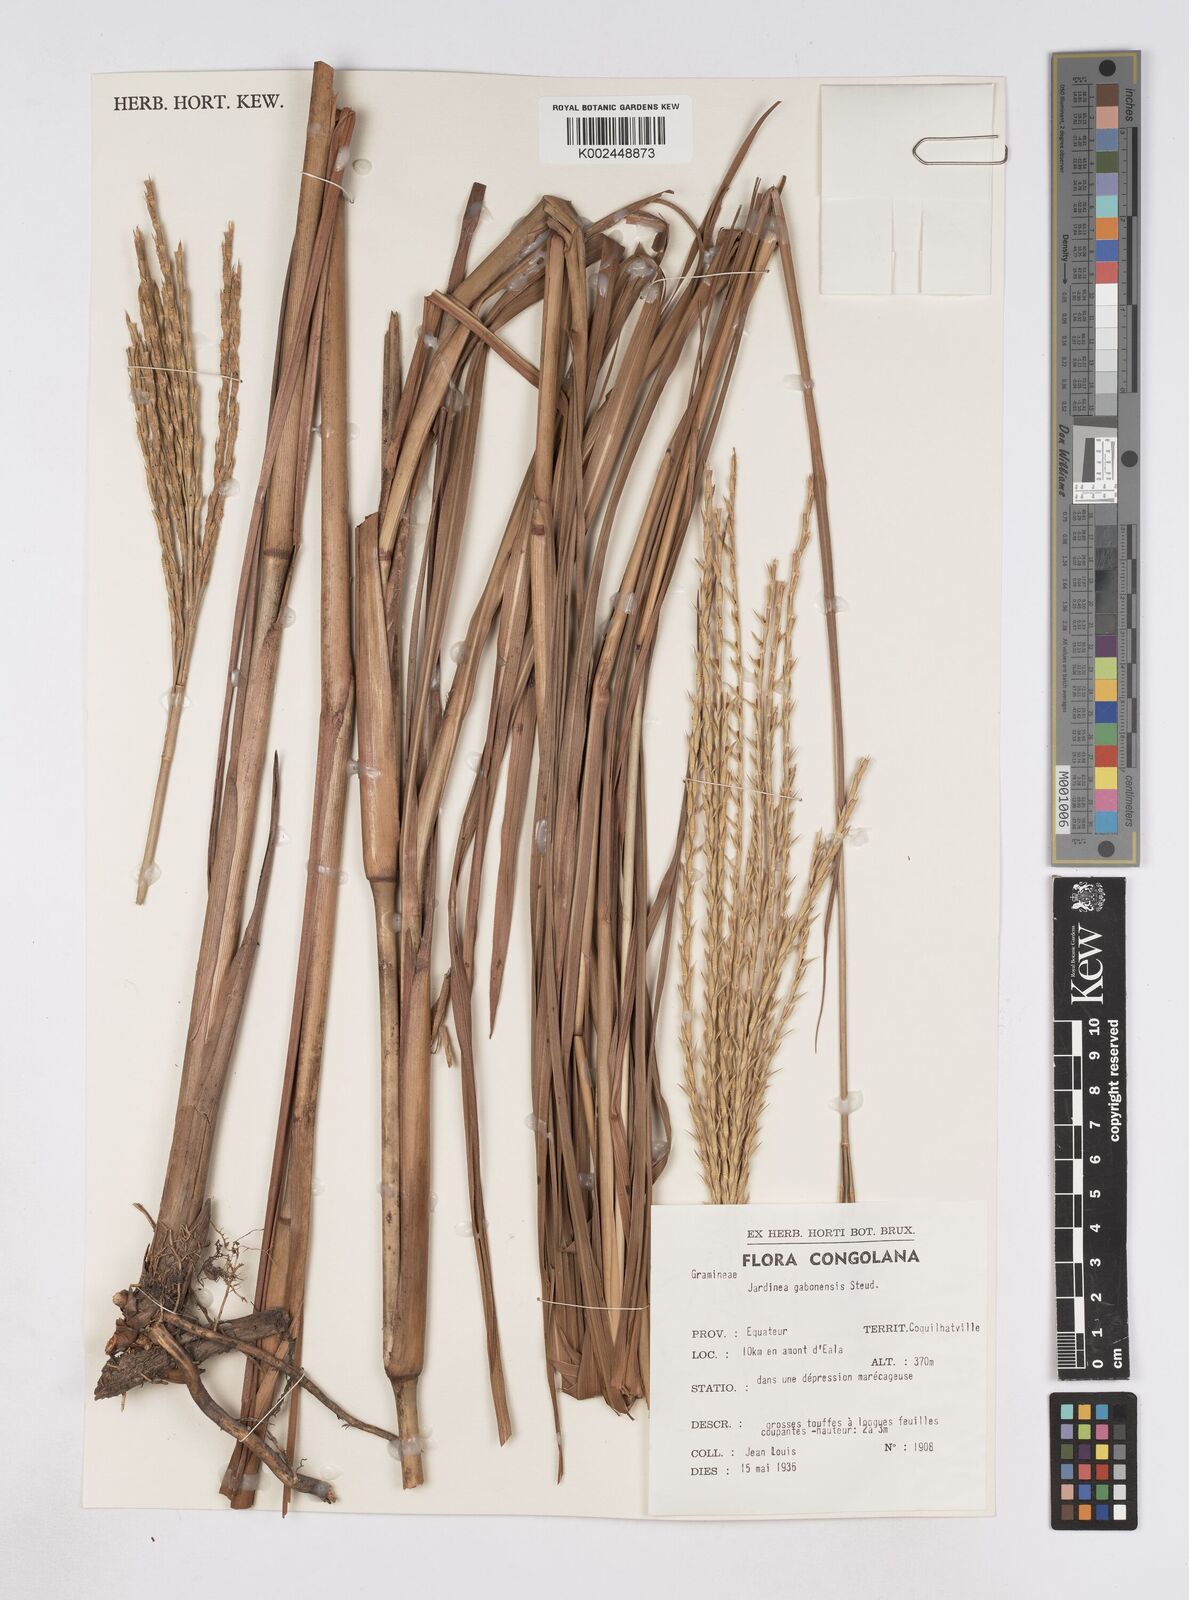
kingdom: Plantae
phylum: Tracheophyta
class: Liliopsida
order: Poales
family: Poaceae
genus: Phacelurus
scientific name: Phacelurus gabonensis
